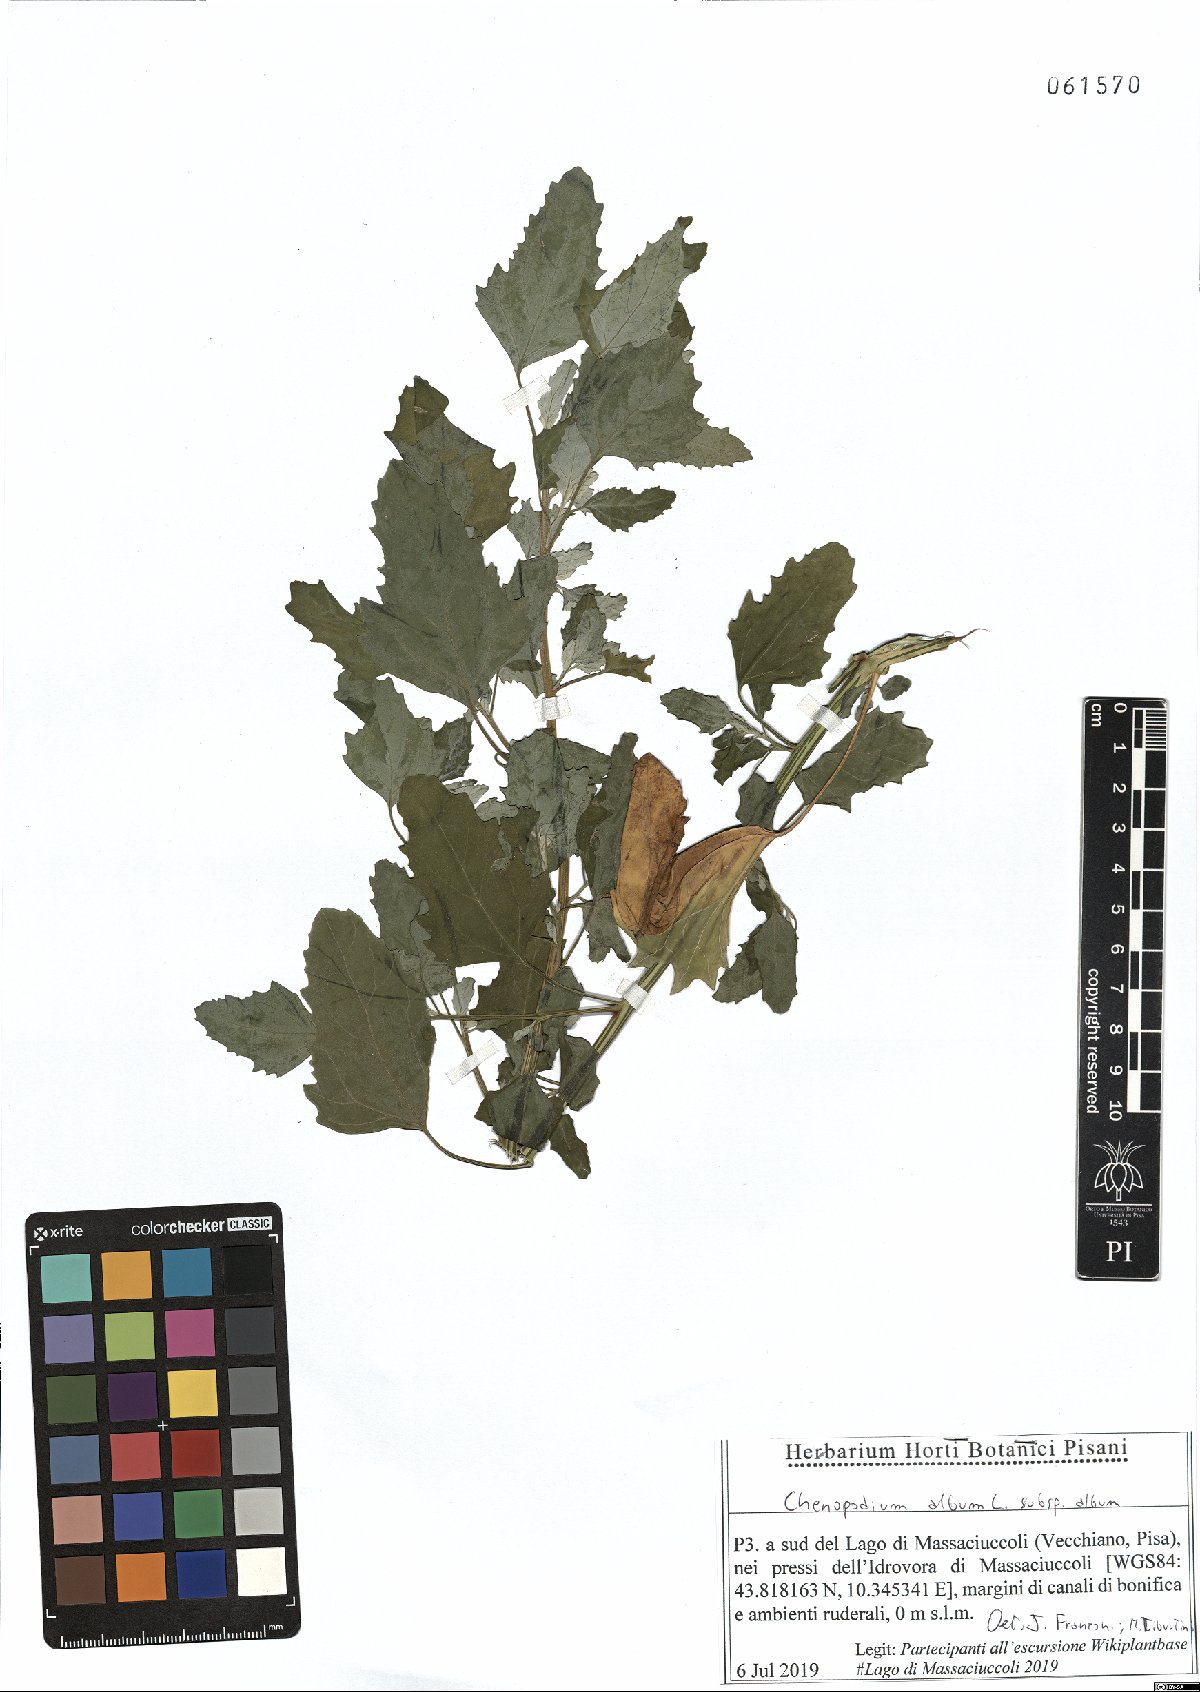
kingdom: Plantae
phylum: Tracheophyta
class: Magnoliopsida
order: Caryophyllales
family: Amaranthaceae
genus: Chenopodium
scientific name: Chenopodium album
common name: Fat-hen
